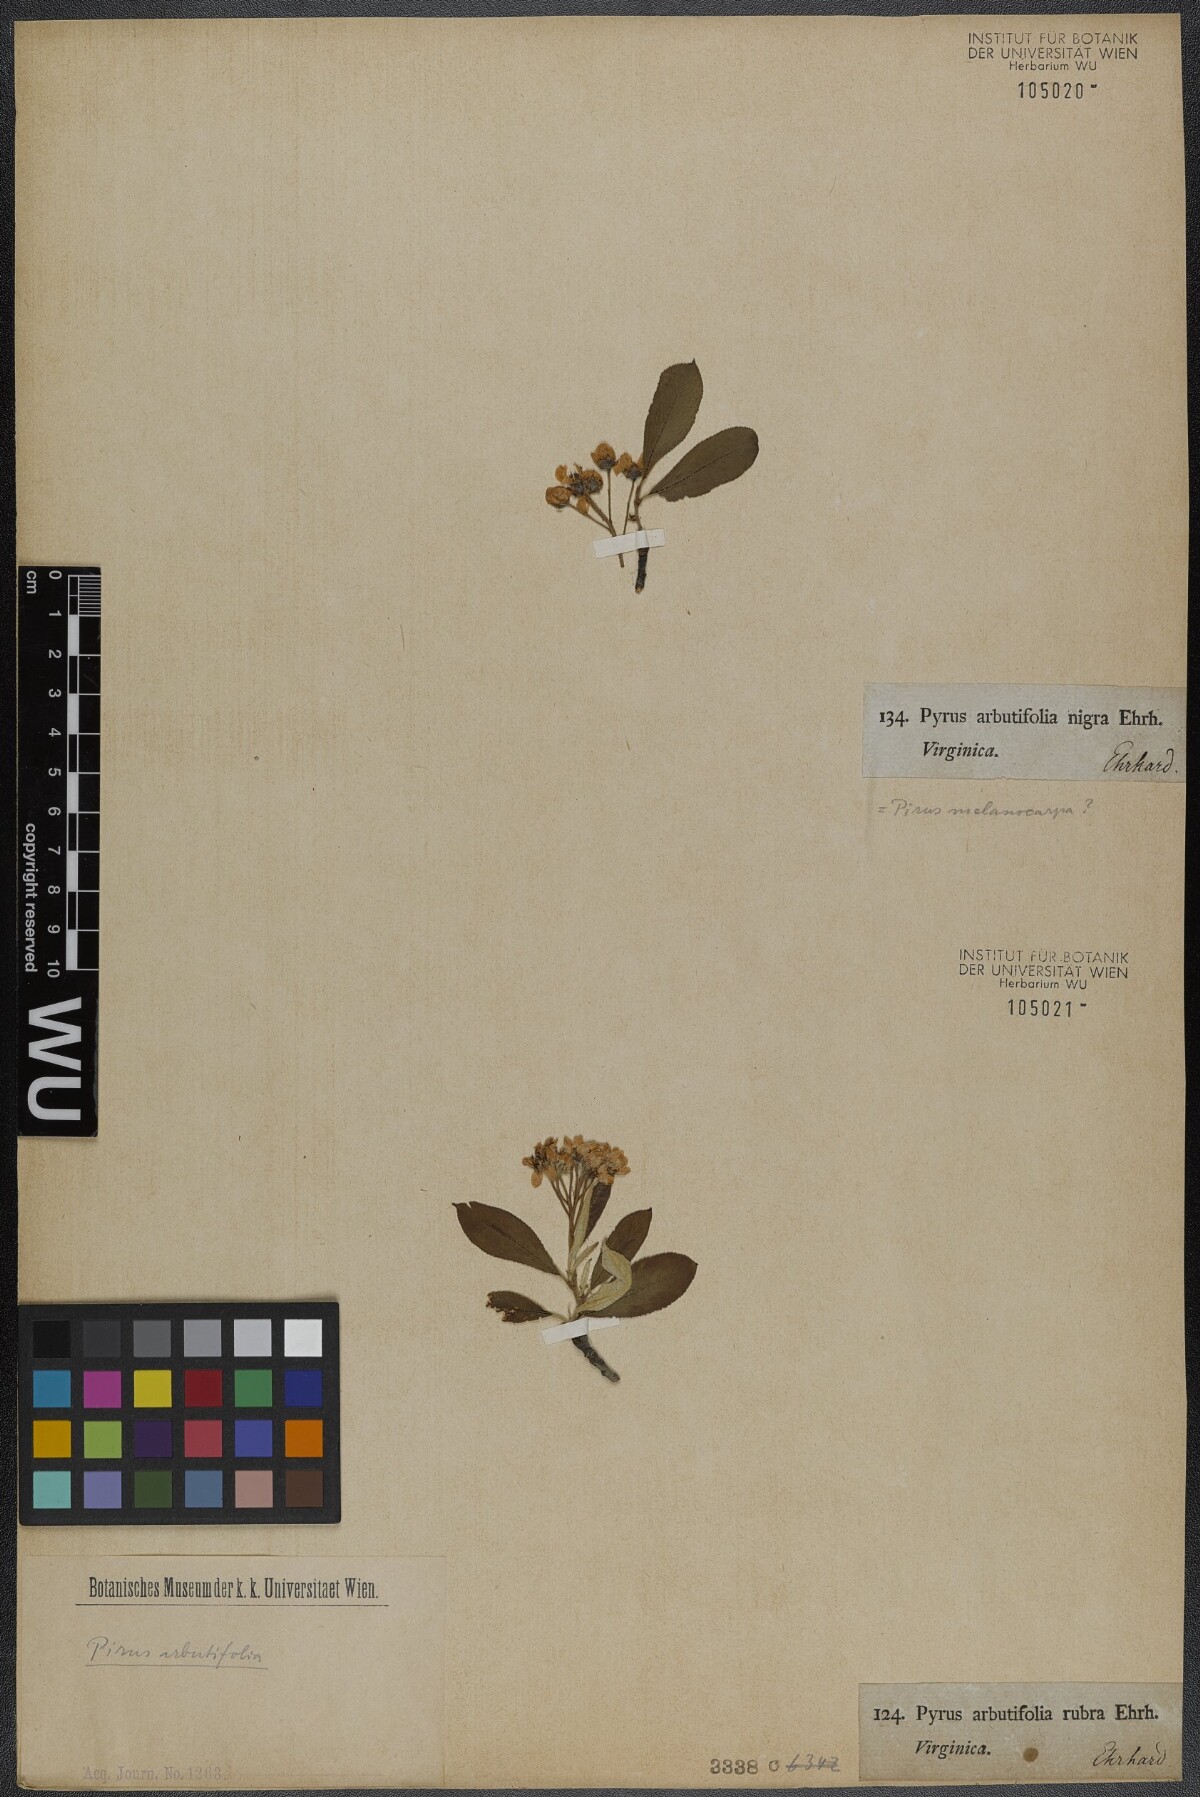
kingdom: Plantae
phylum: Tracheophyta
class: Magnoliopsida
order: Rosales
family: Rosaceae
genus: Aronia
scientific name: Aronia arbutifolia
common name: Red chokeberry
